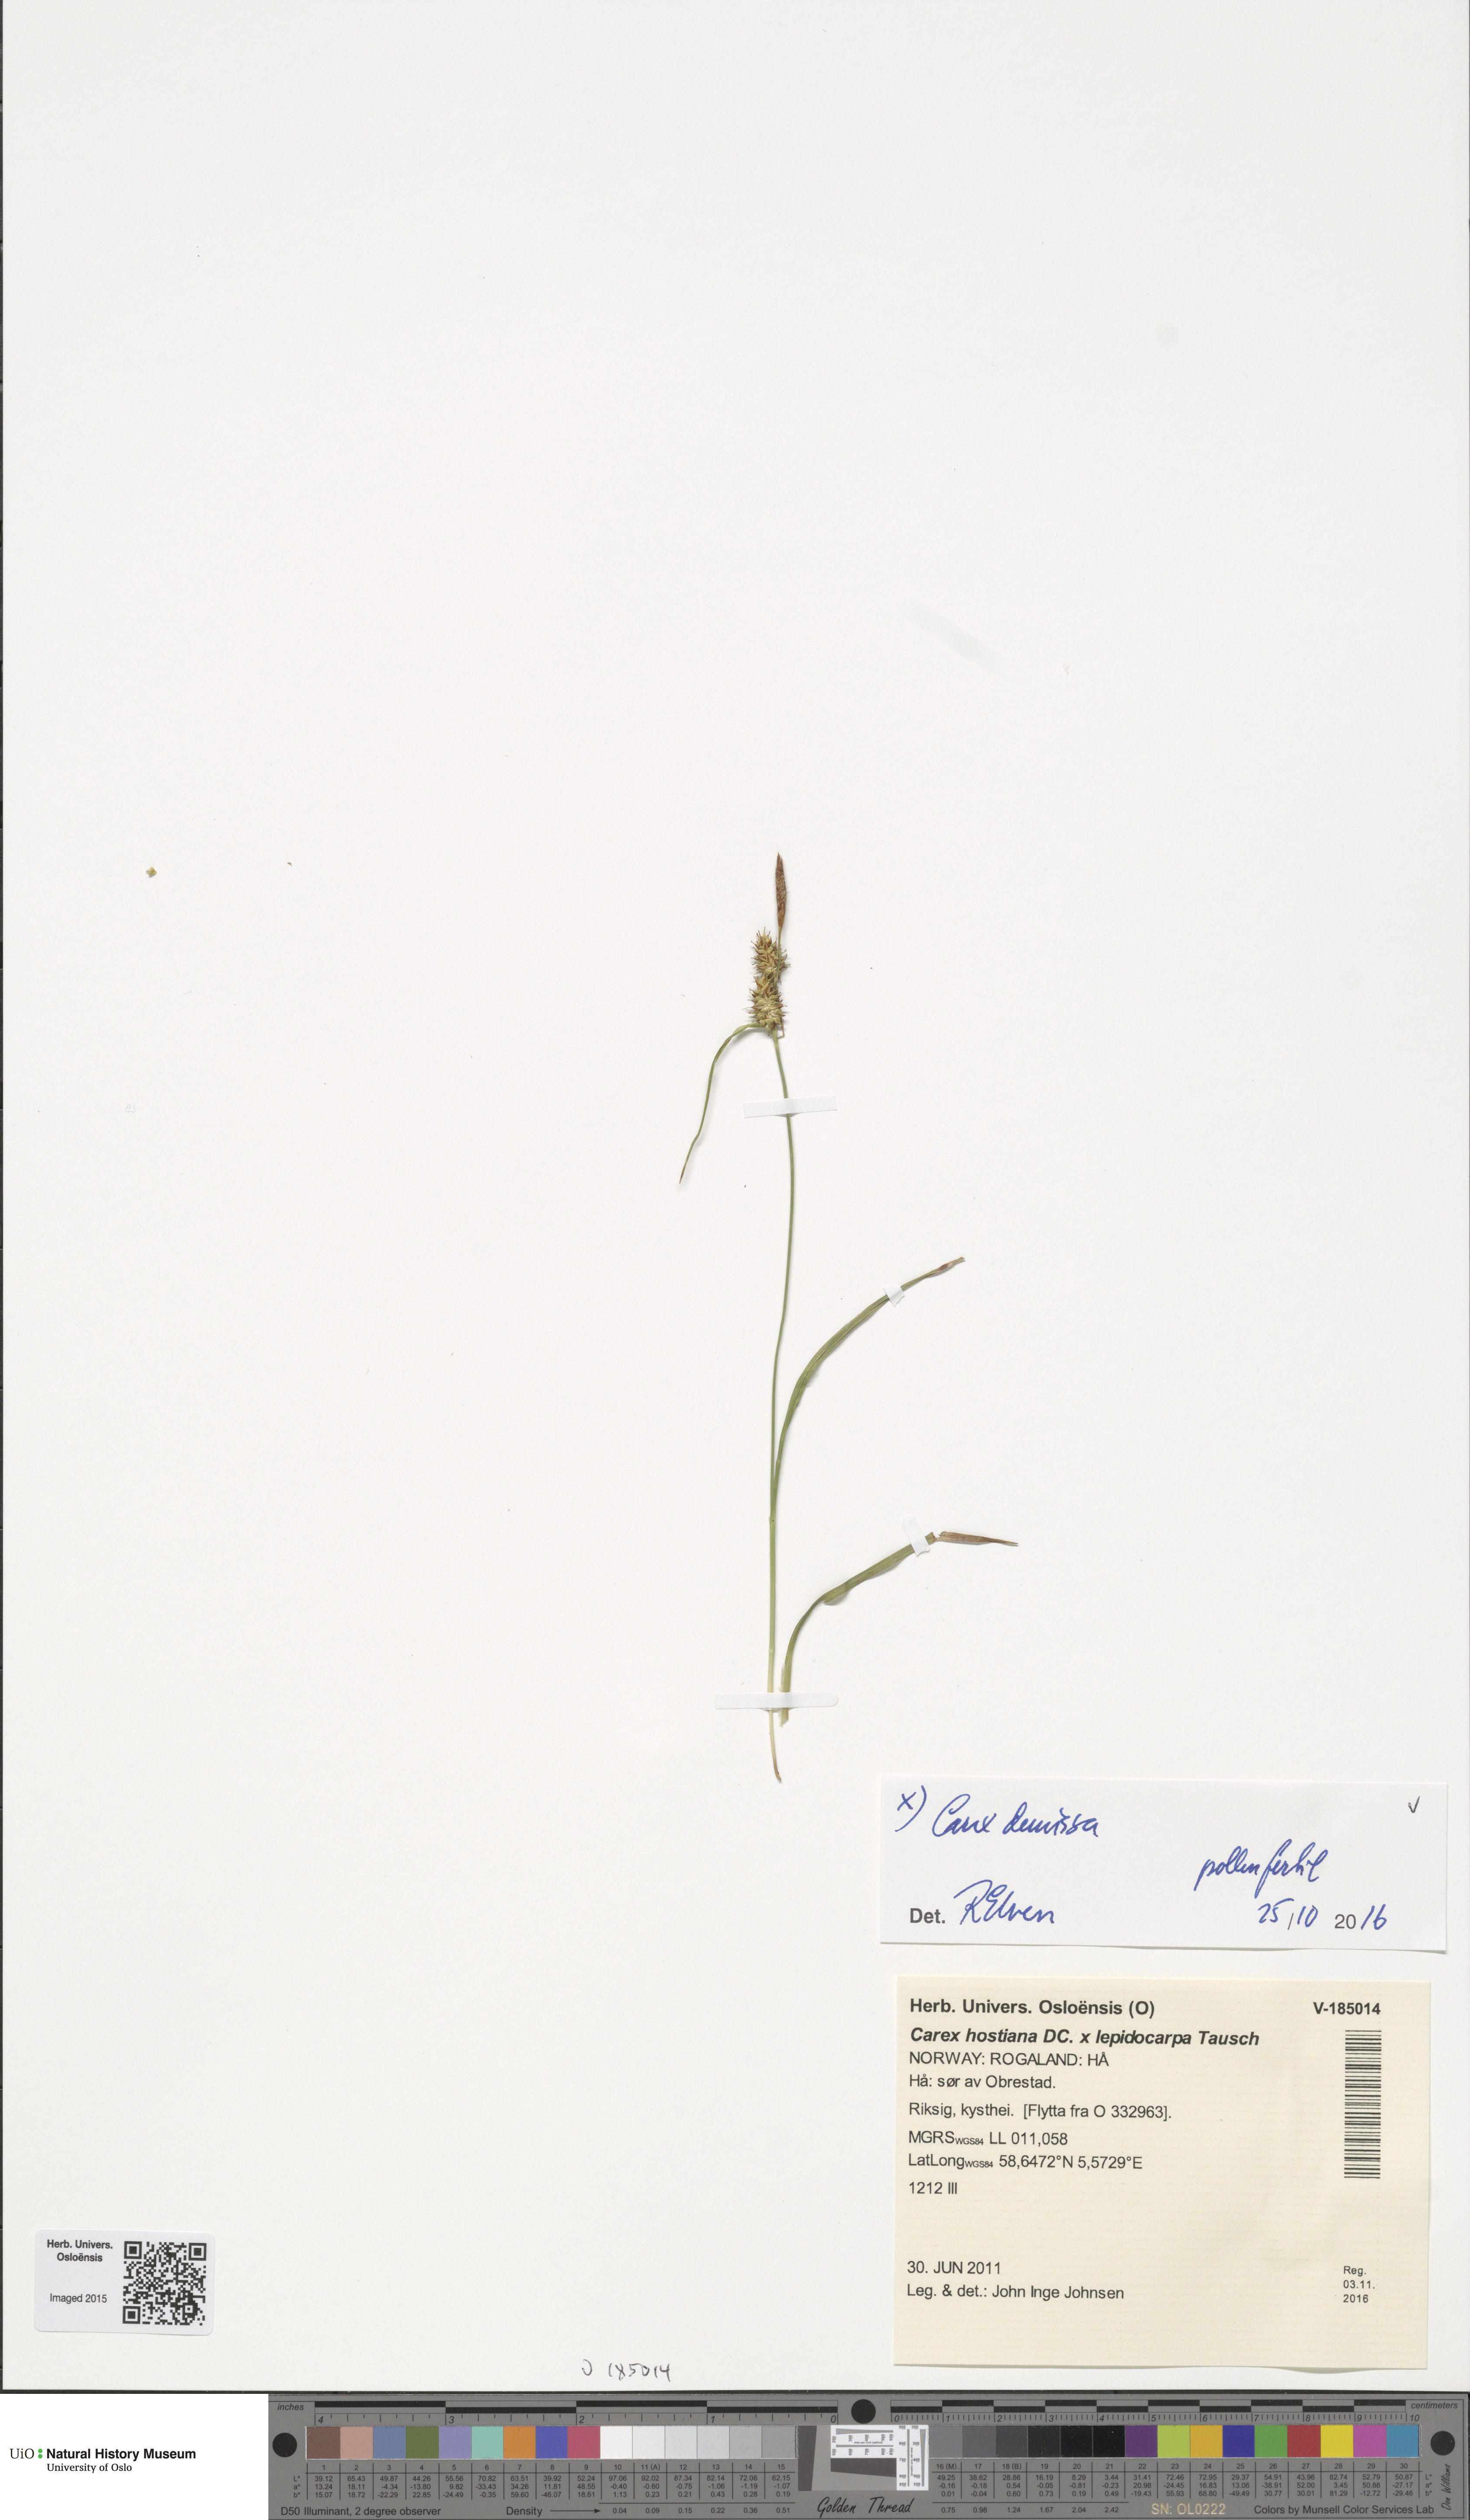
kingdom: Plantae
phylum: Tracheophyta
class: Liliopsida
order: Poales
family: Cyperaceae
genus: Carex
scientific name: Carex demissa
